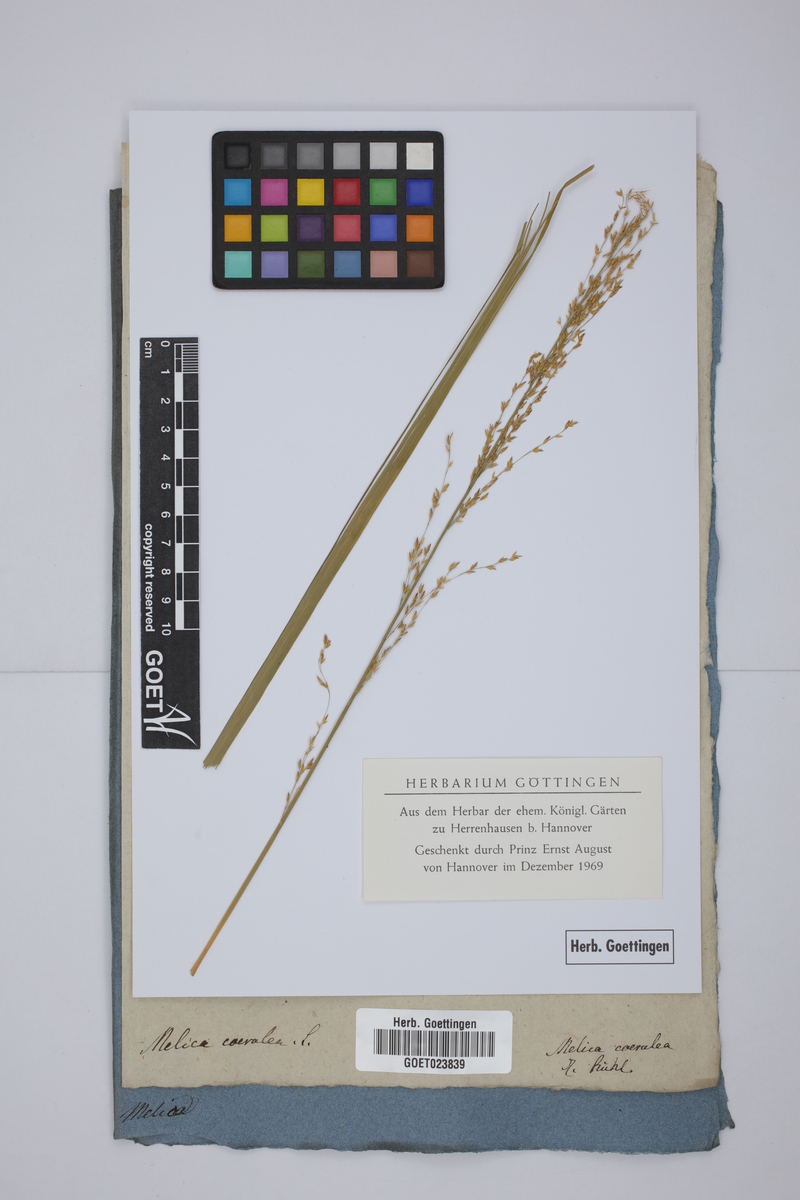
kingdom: Plantae
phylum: Tracheophyta
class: Liliopsida
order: Poales
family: Poaceae
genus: Molinia
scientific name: Molinia caerulea
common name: Purple moor-grass
